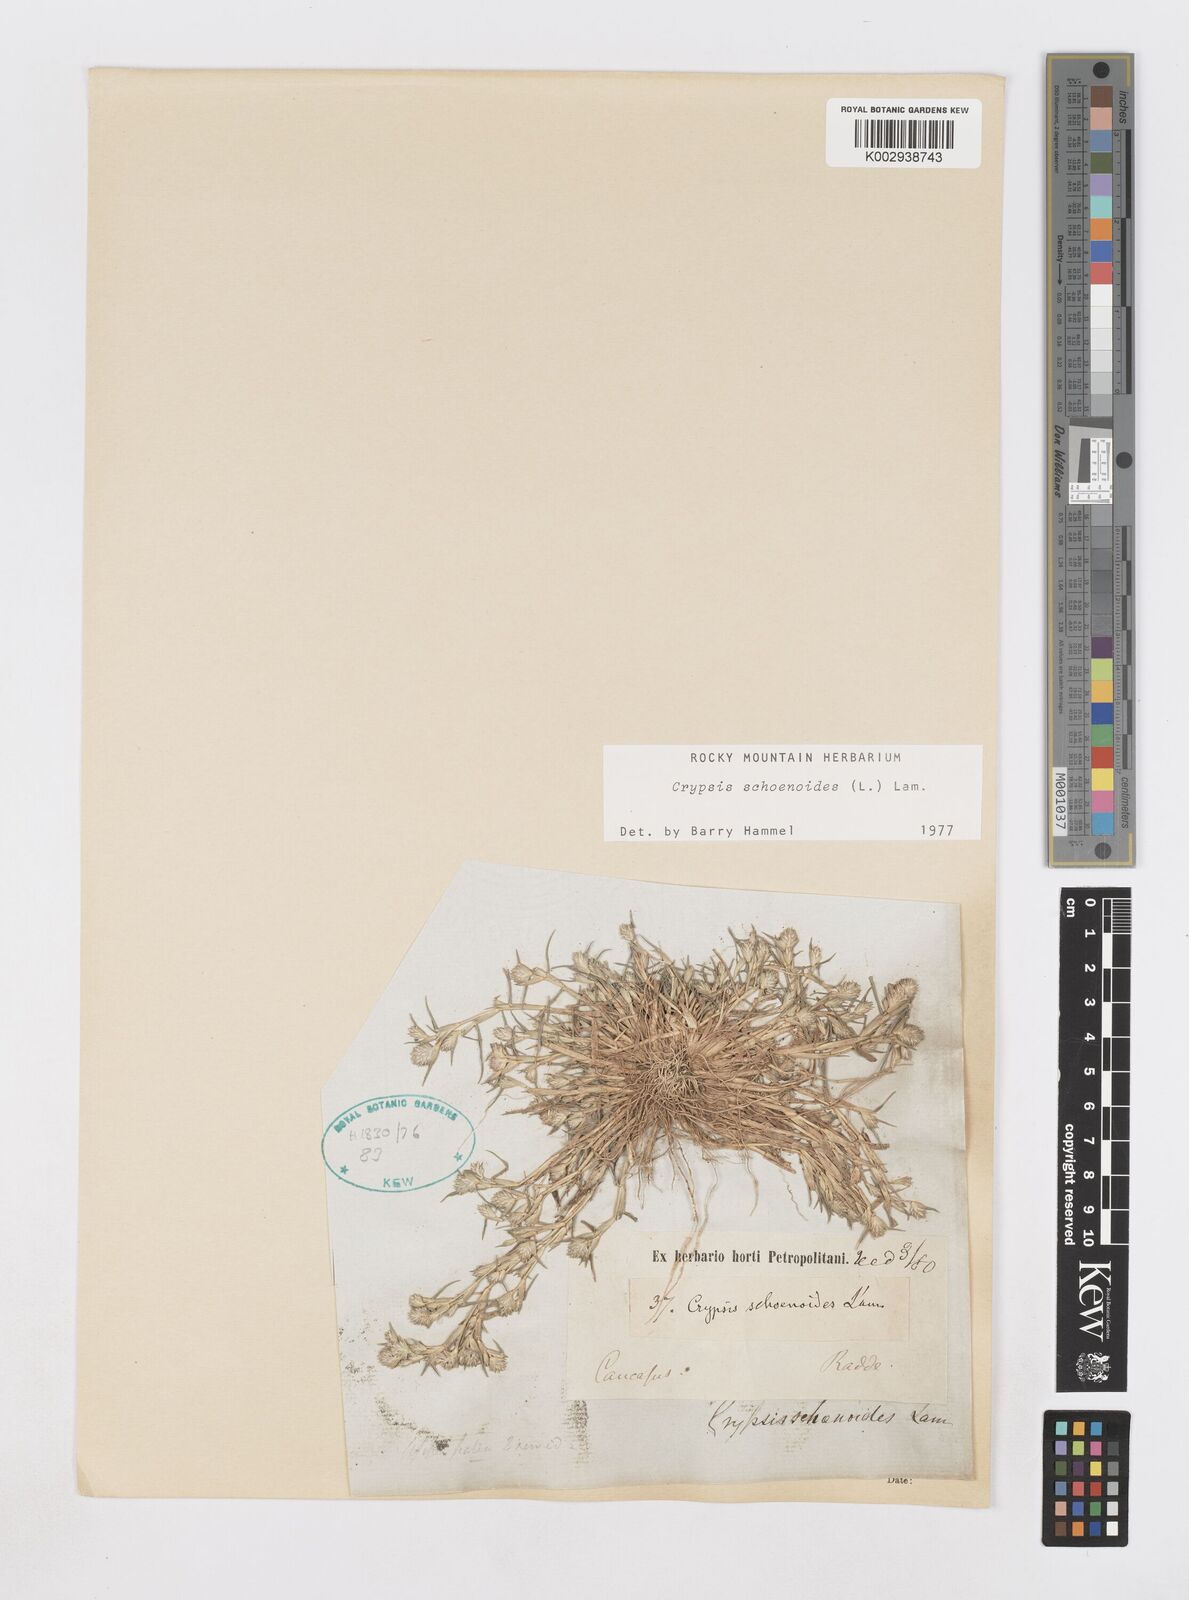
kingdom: Plantae
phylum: Tracheophyta
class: Liliopsida
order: Poales
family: Poaceae
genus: Sporobolus
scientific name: Sporobolus schoenoides
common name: Rush-like timothy
